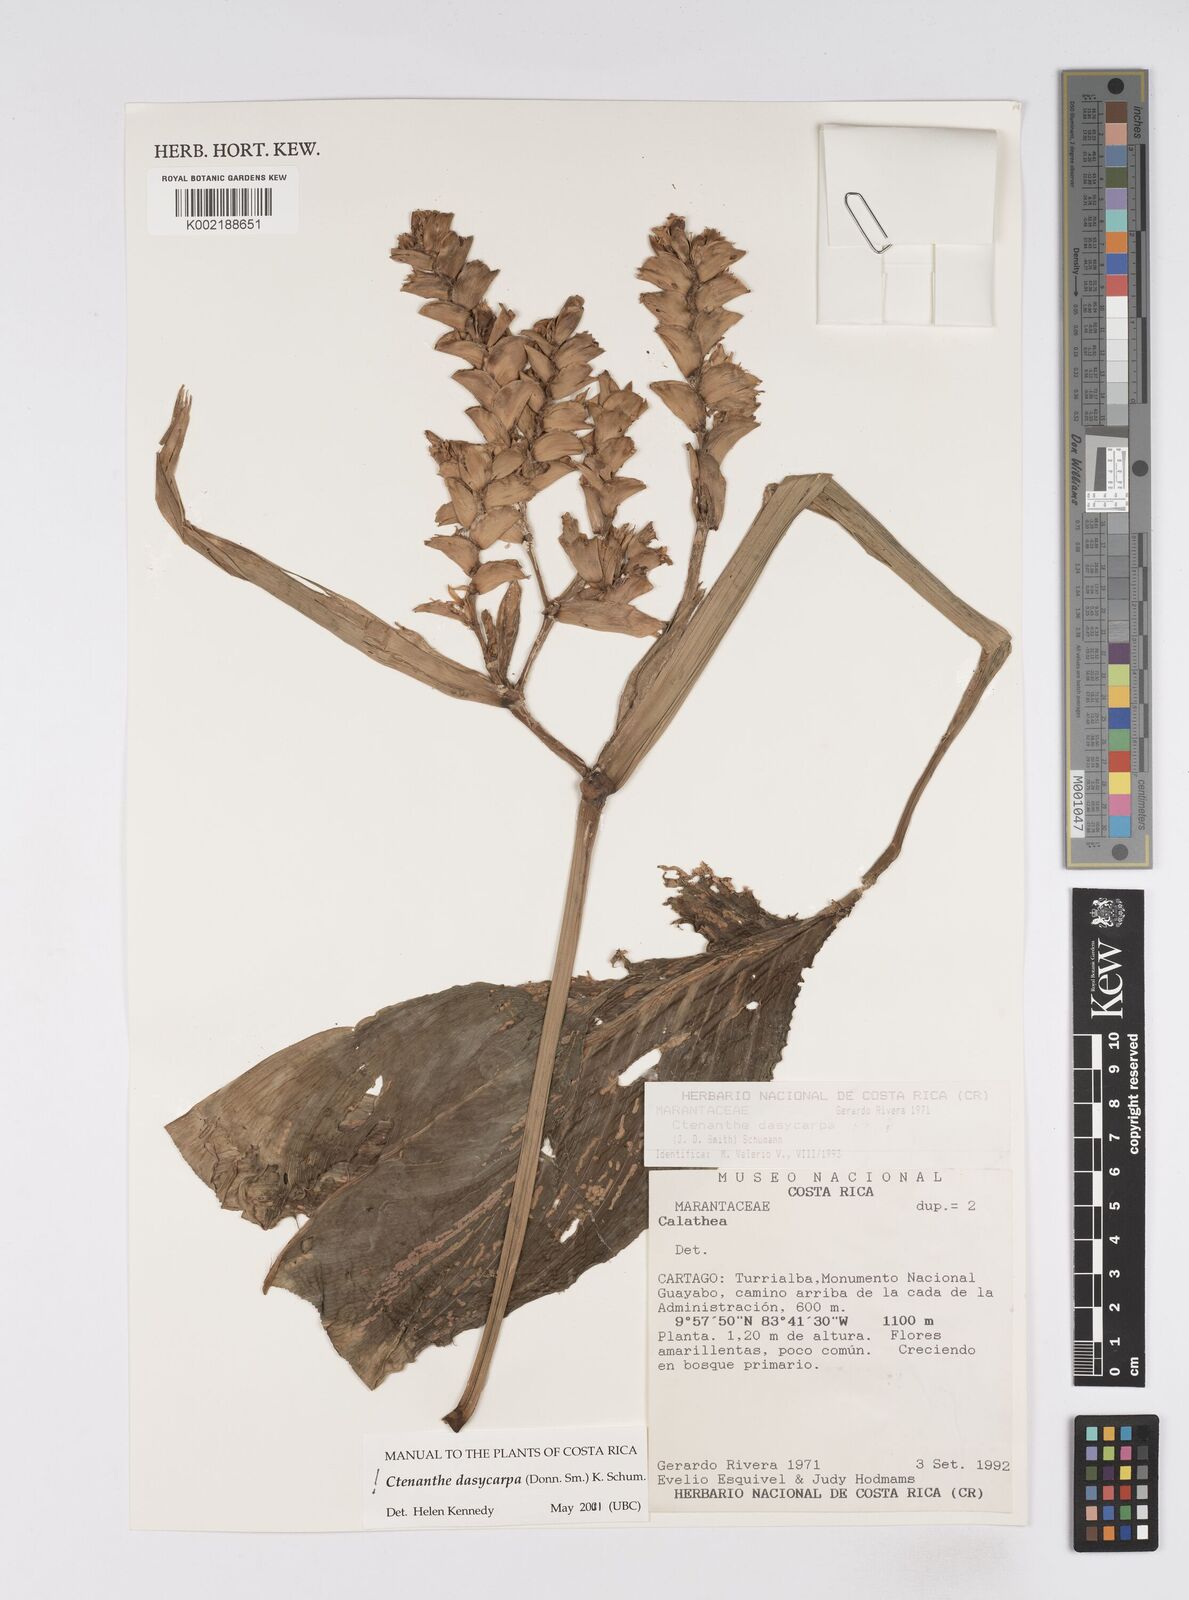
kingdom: Plantae
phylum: Tracheophyta
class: Liliopsida
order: Zingiberales
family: Marantaceae
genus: Ctenanthe
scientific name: Ctenanthe dasycarpa
